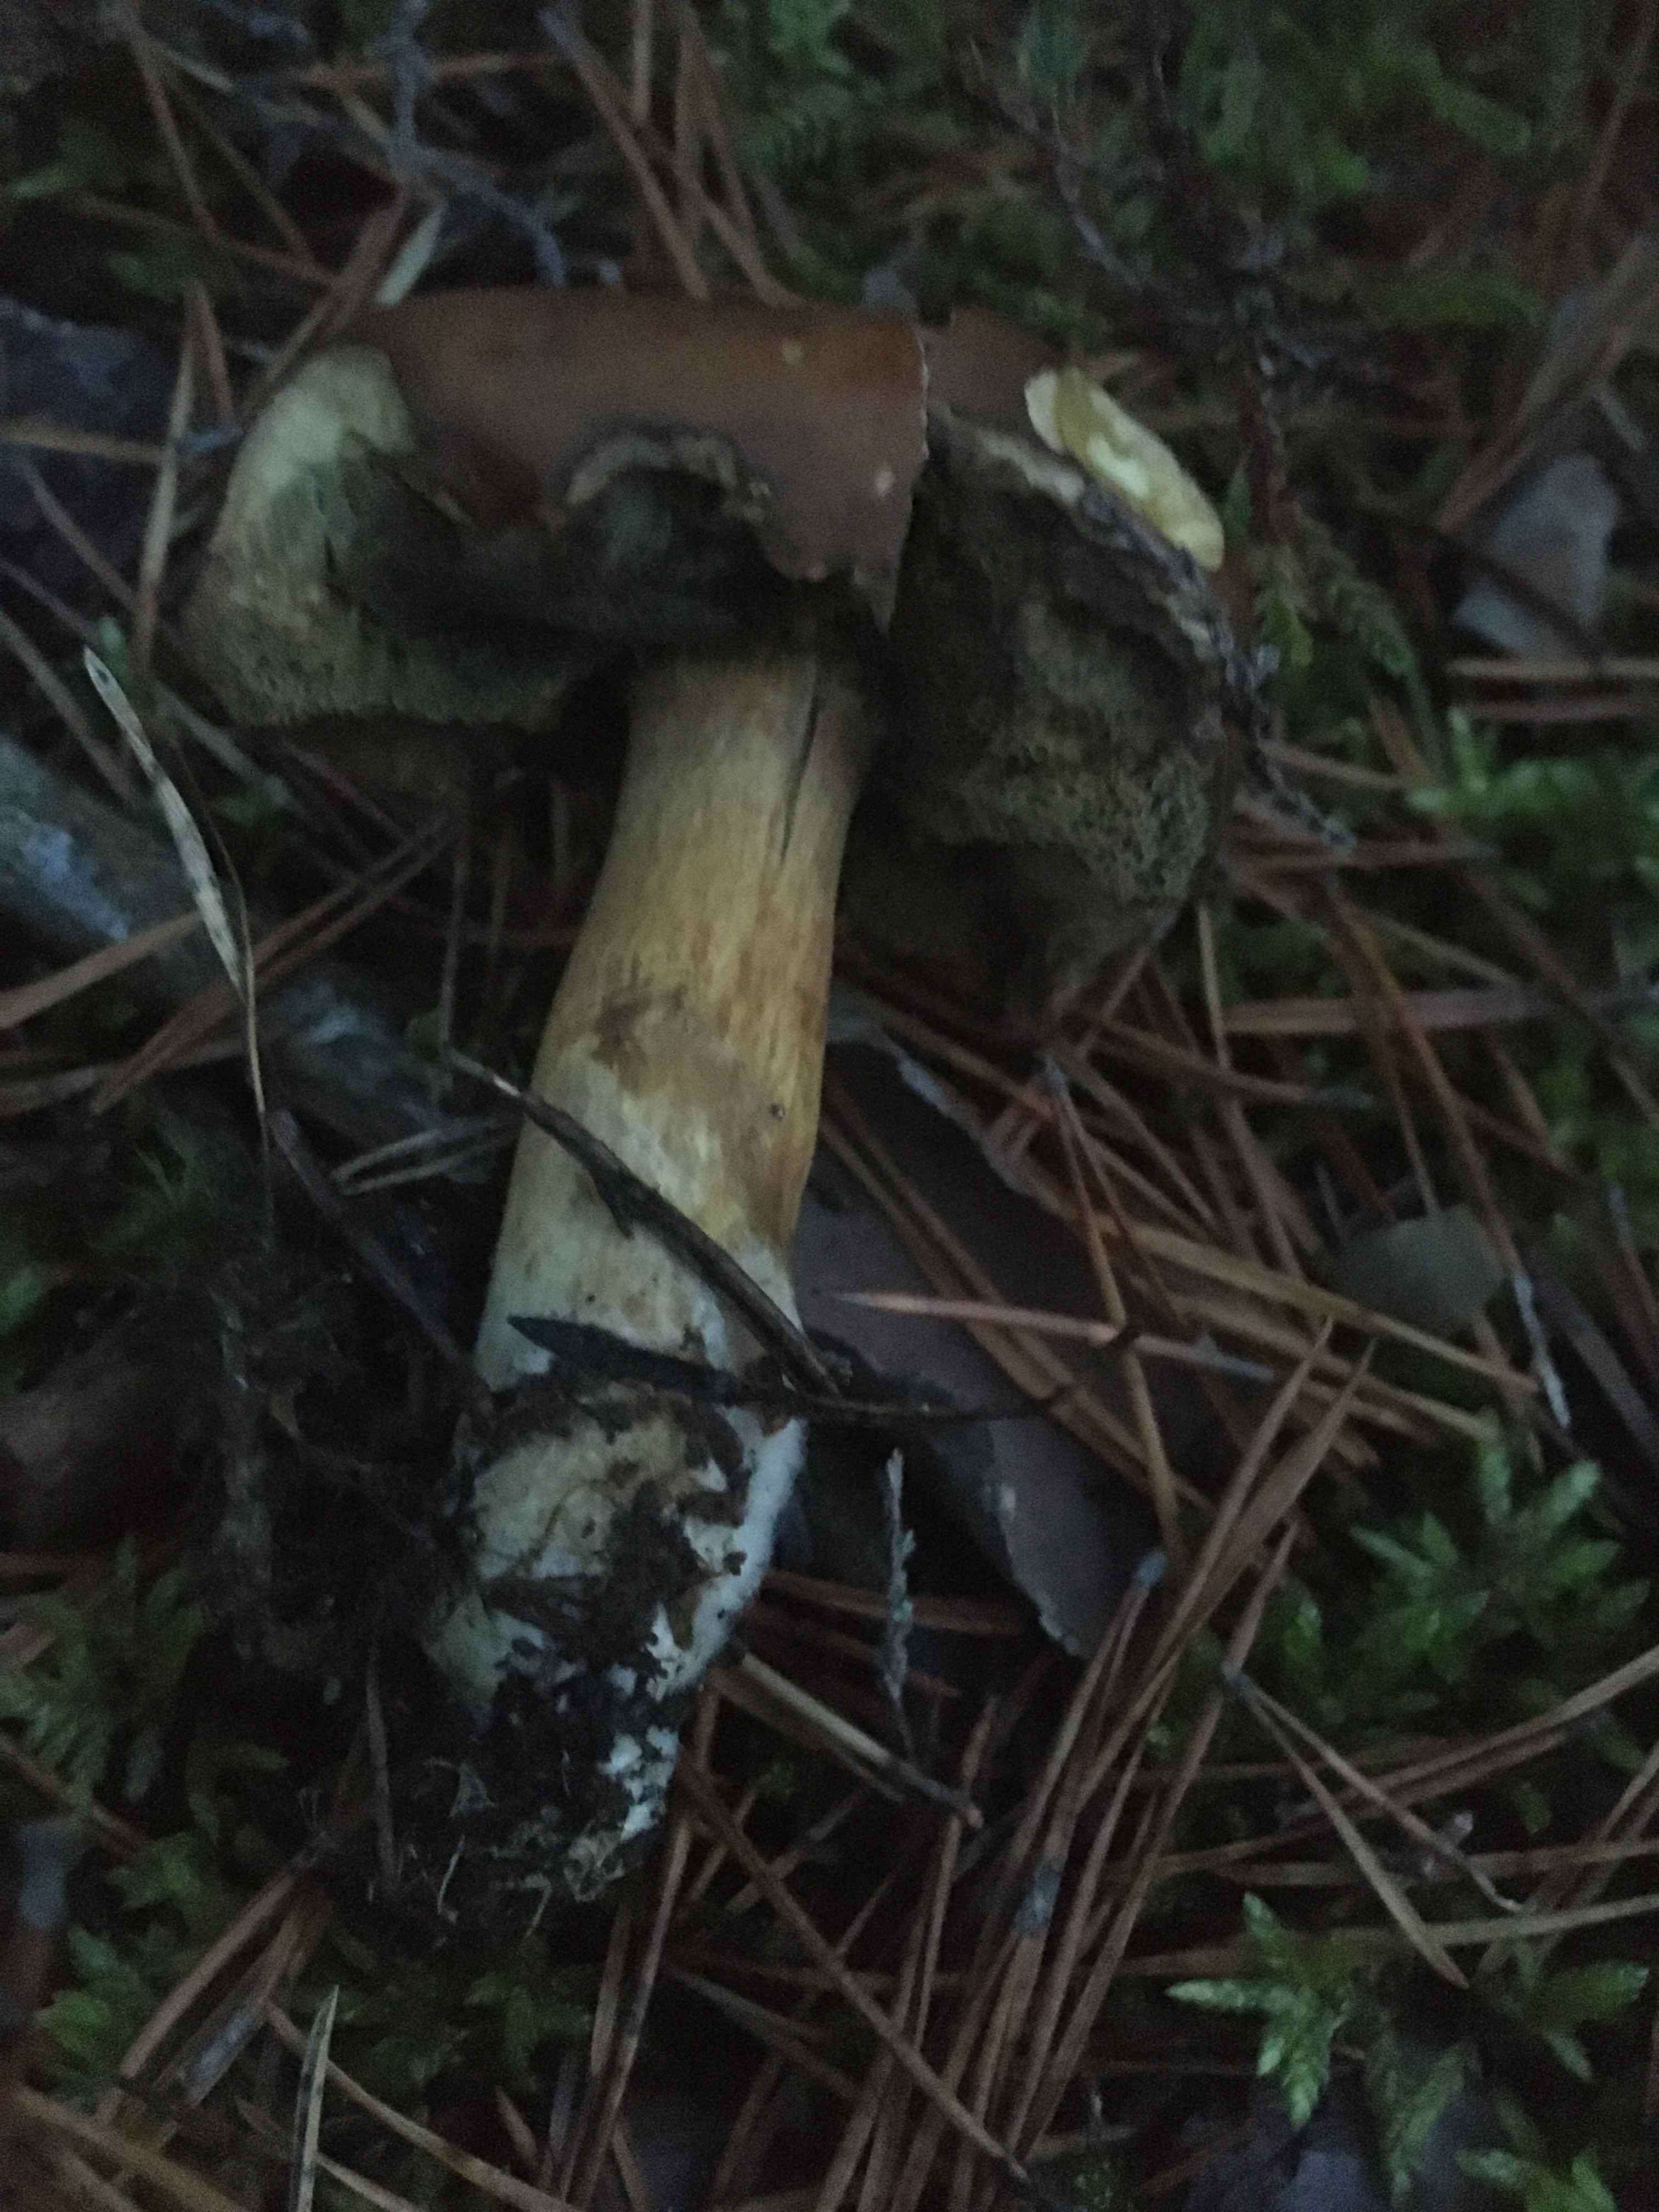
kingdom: Fungi
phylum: Basidiomycota
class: Agaricomycetes
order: Boletales
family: Boletaceae
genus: Imleria
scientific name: Imleria badia
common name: brunstokket rørhat
